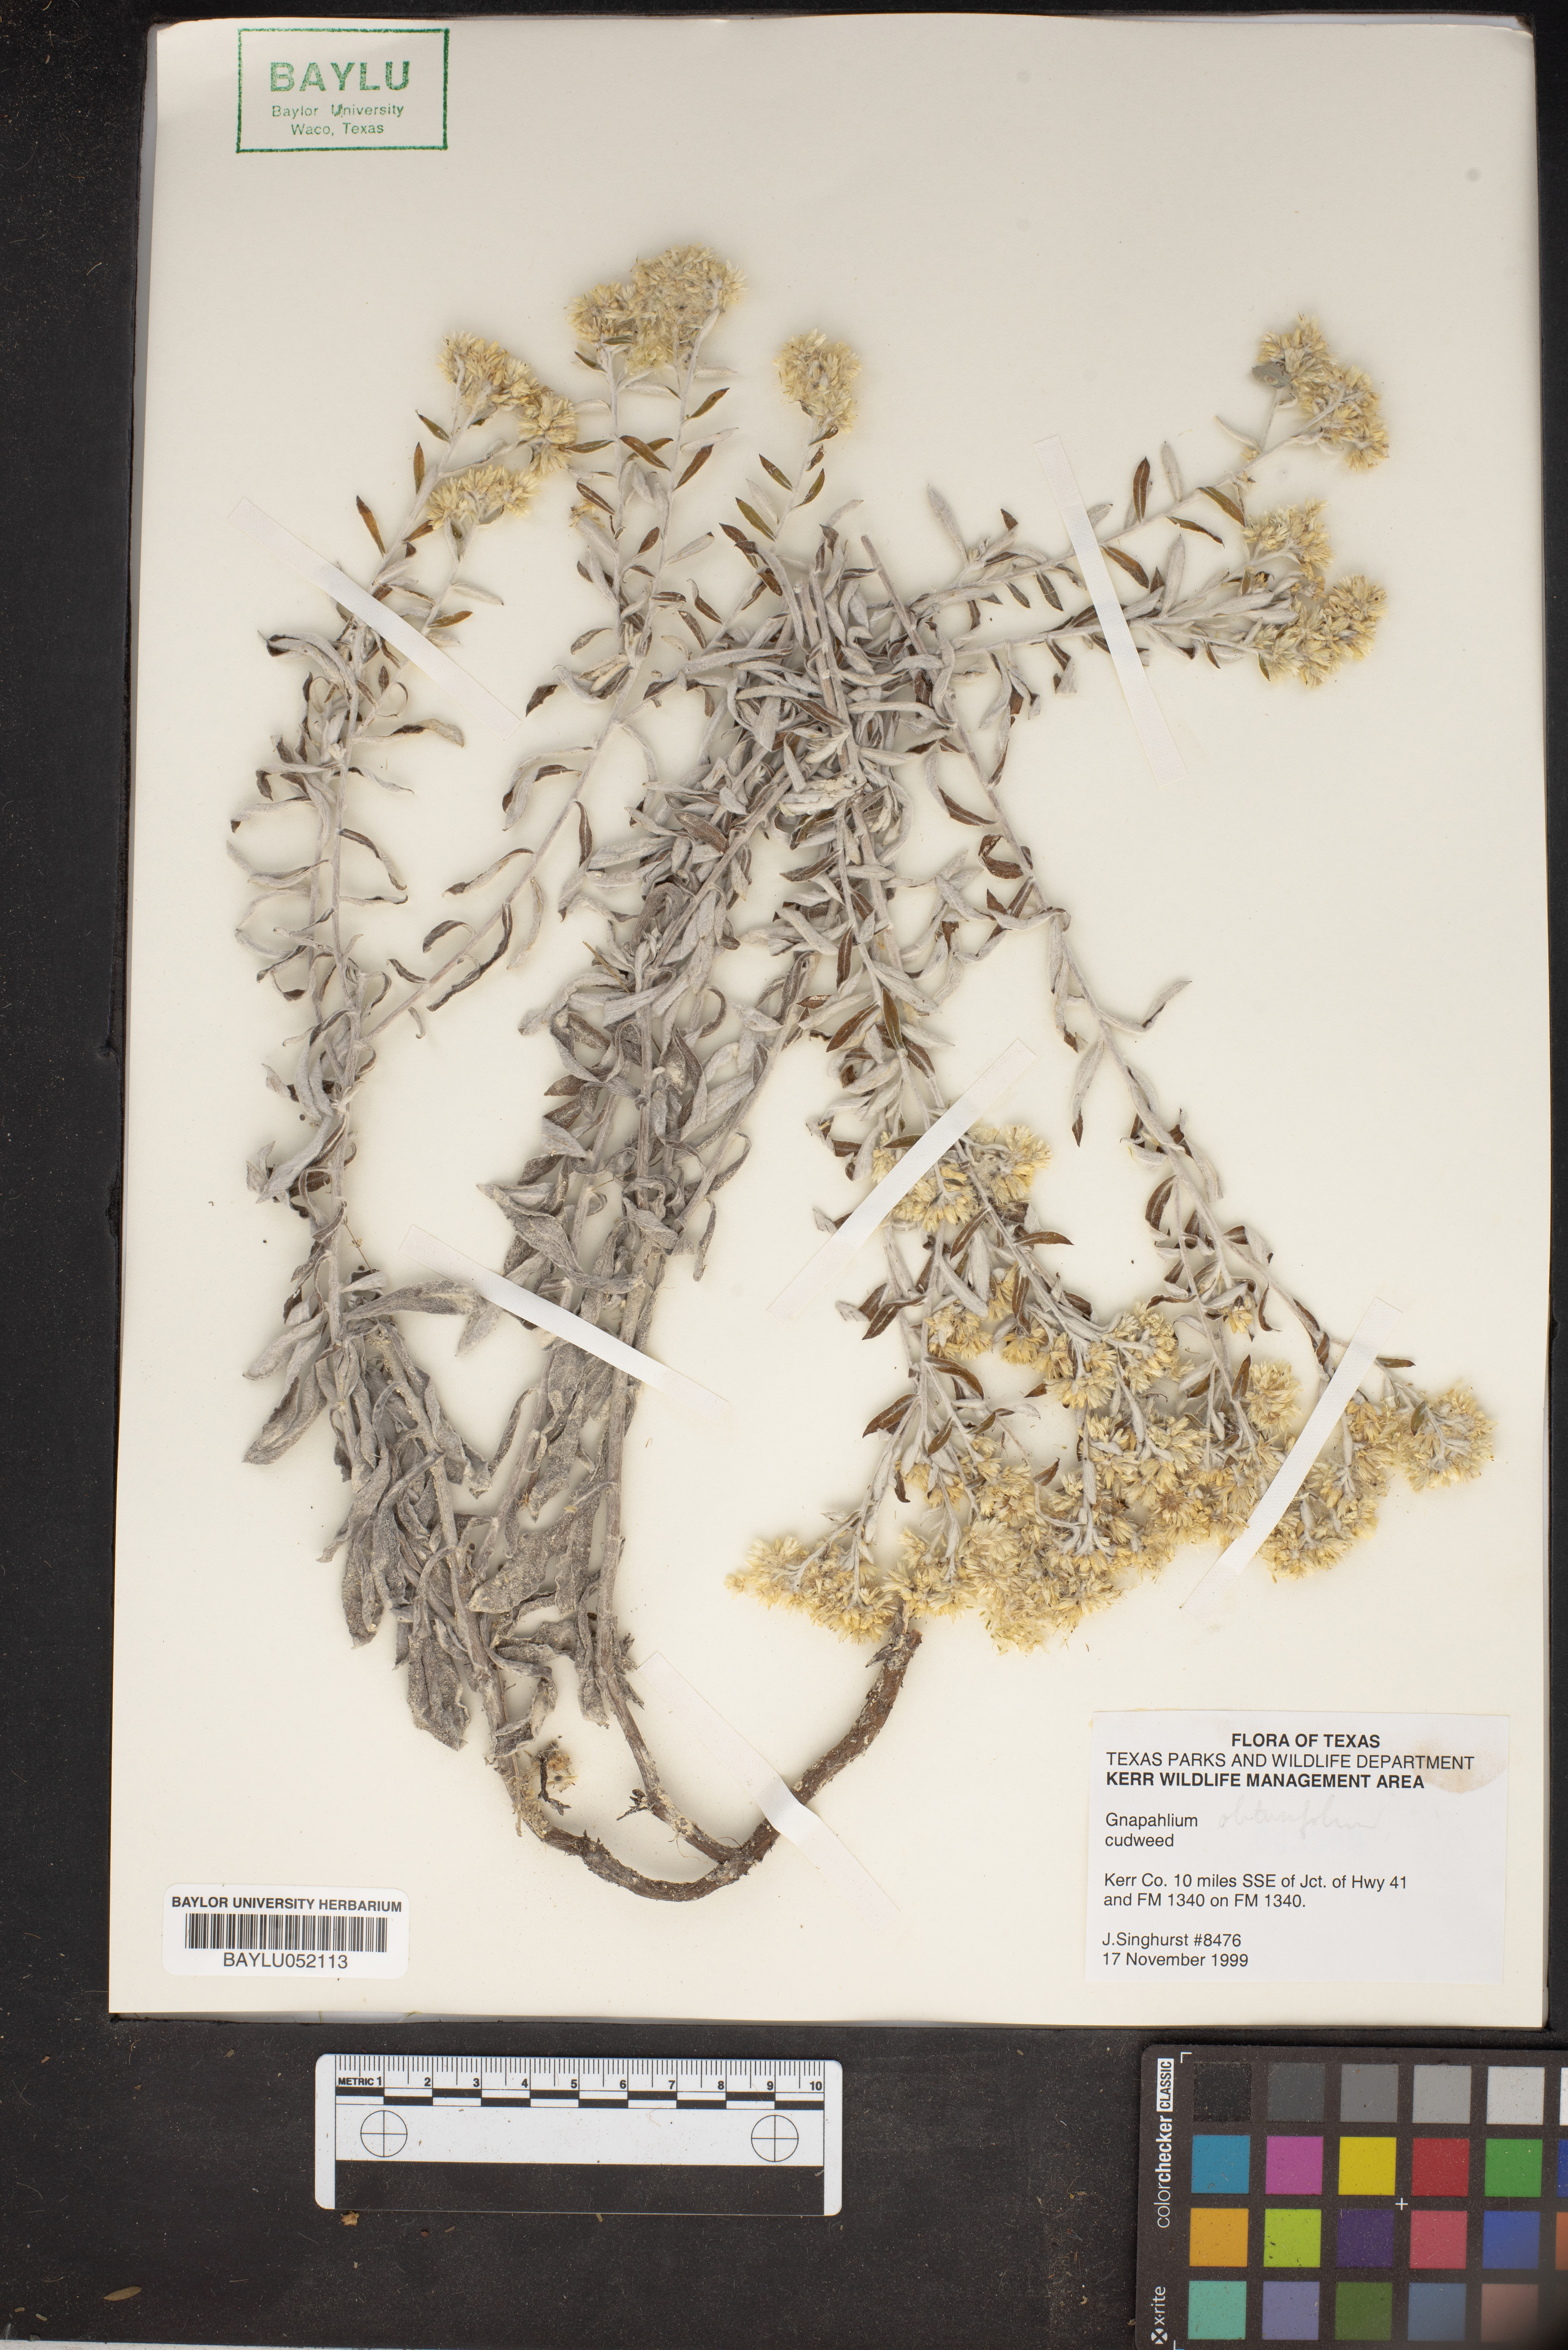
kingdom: Plantae
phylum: Tracheophyta
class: Magnoliopsida
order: Asterales
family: Asteraceae
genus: Gnaphalium
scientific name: Gnaphalium
